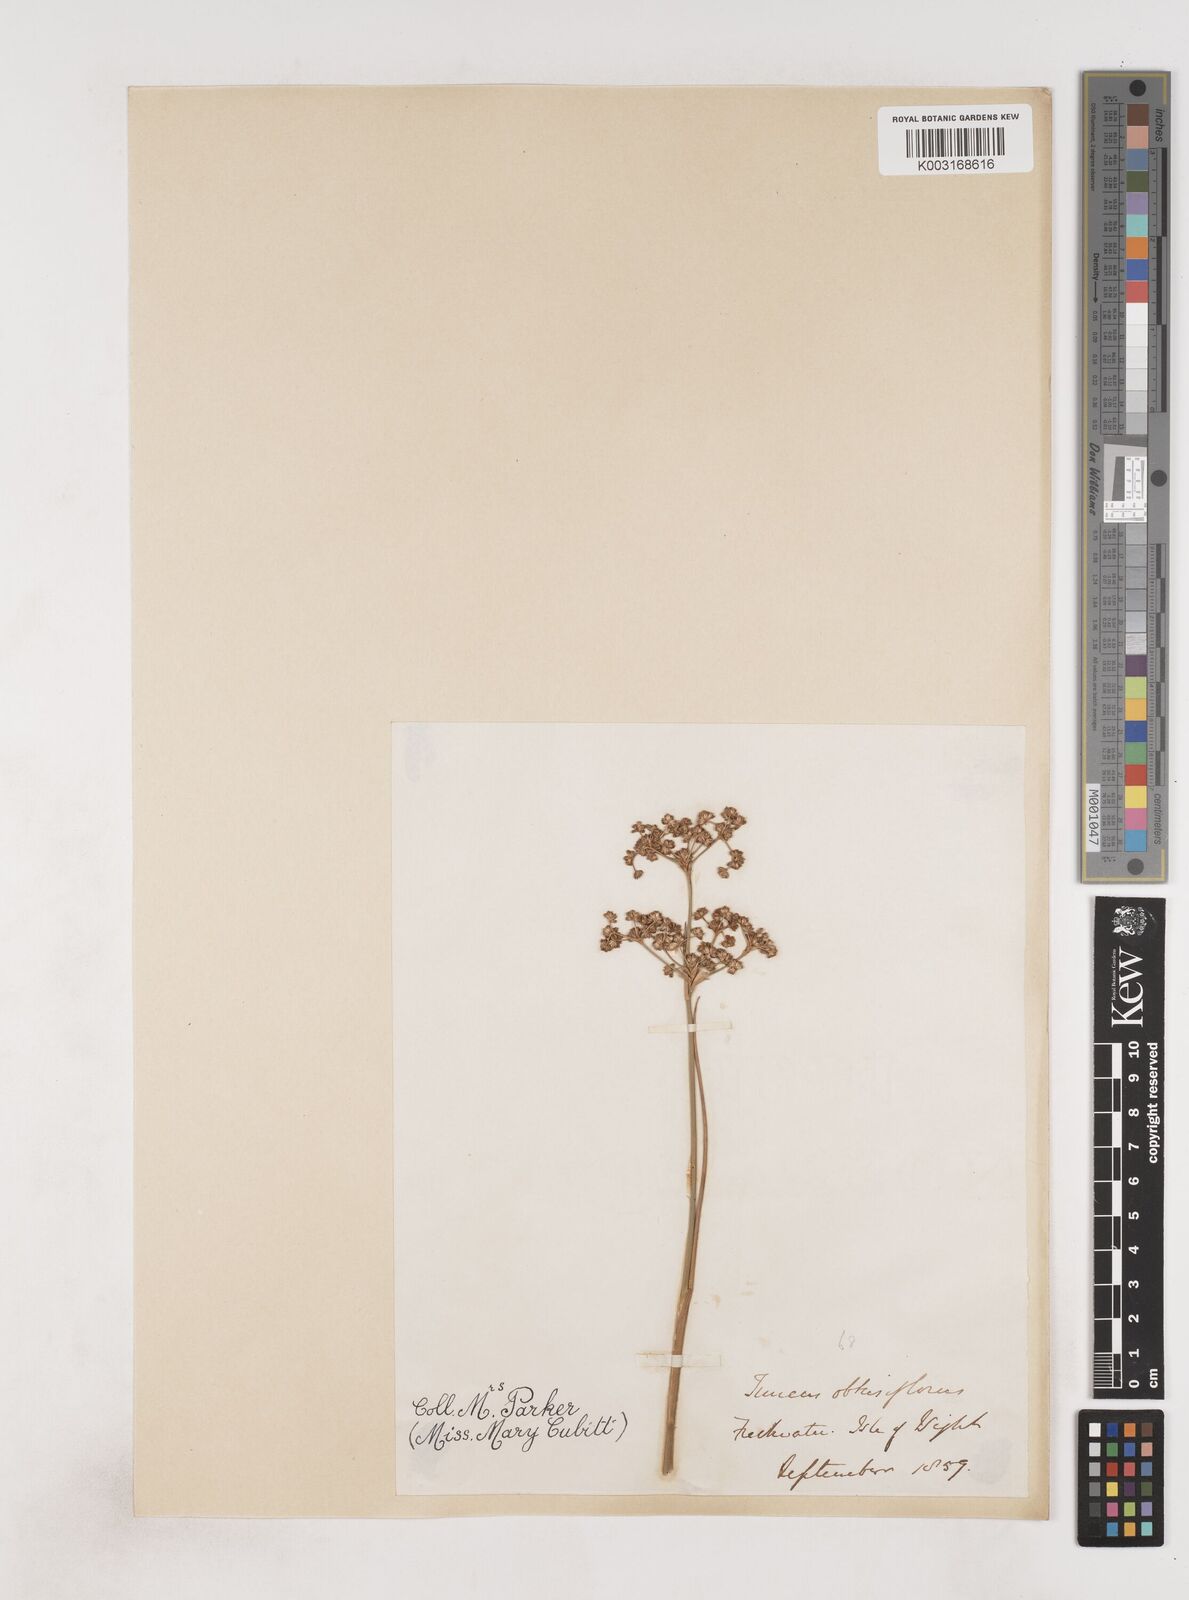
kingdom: Plantae
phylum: Tracheophyta
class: Liliopsida
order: Poales
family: Juncaceae
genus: Juncus
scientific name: Juncus subnodulosus
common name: Blunt-flowered rush
